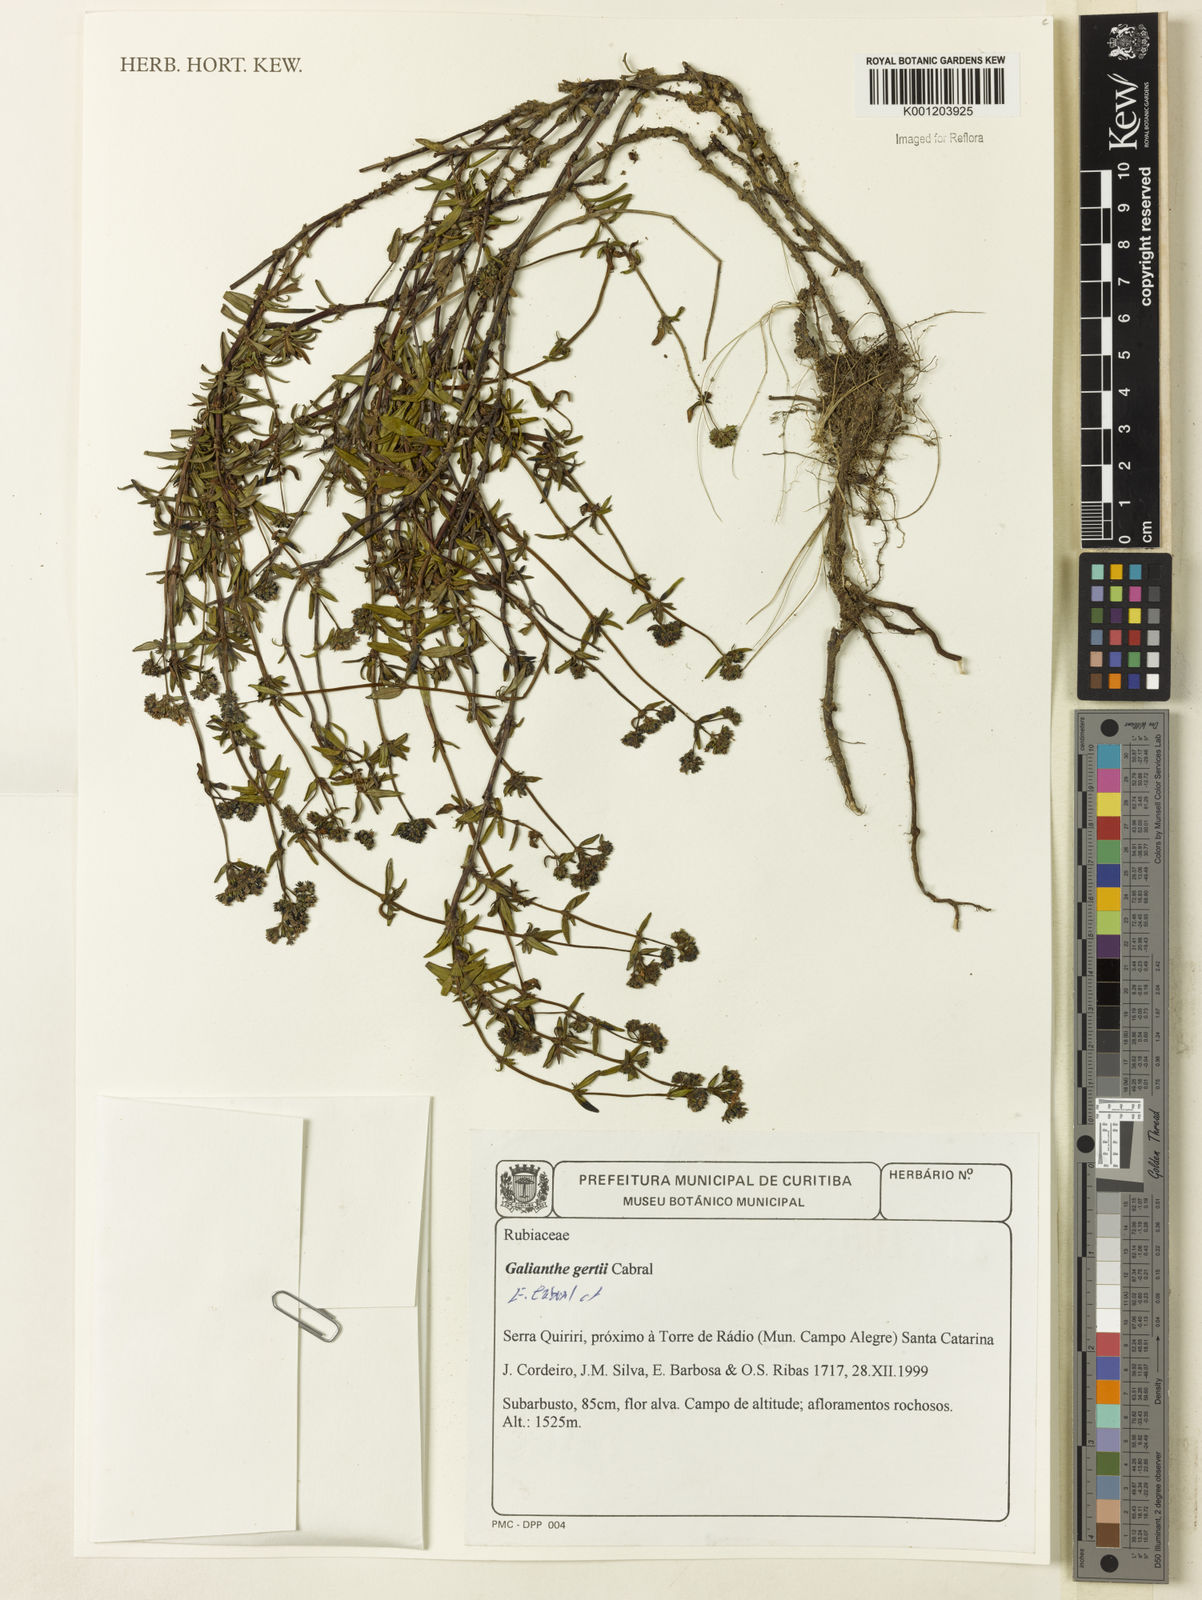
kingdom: Plantae
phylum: Tracheophyta
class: Magnoliopsida
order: Gentianales
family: Rubiaceae
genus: Galianthe
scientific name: Galianthe gertii
